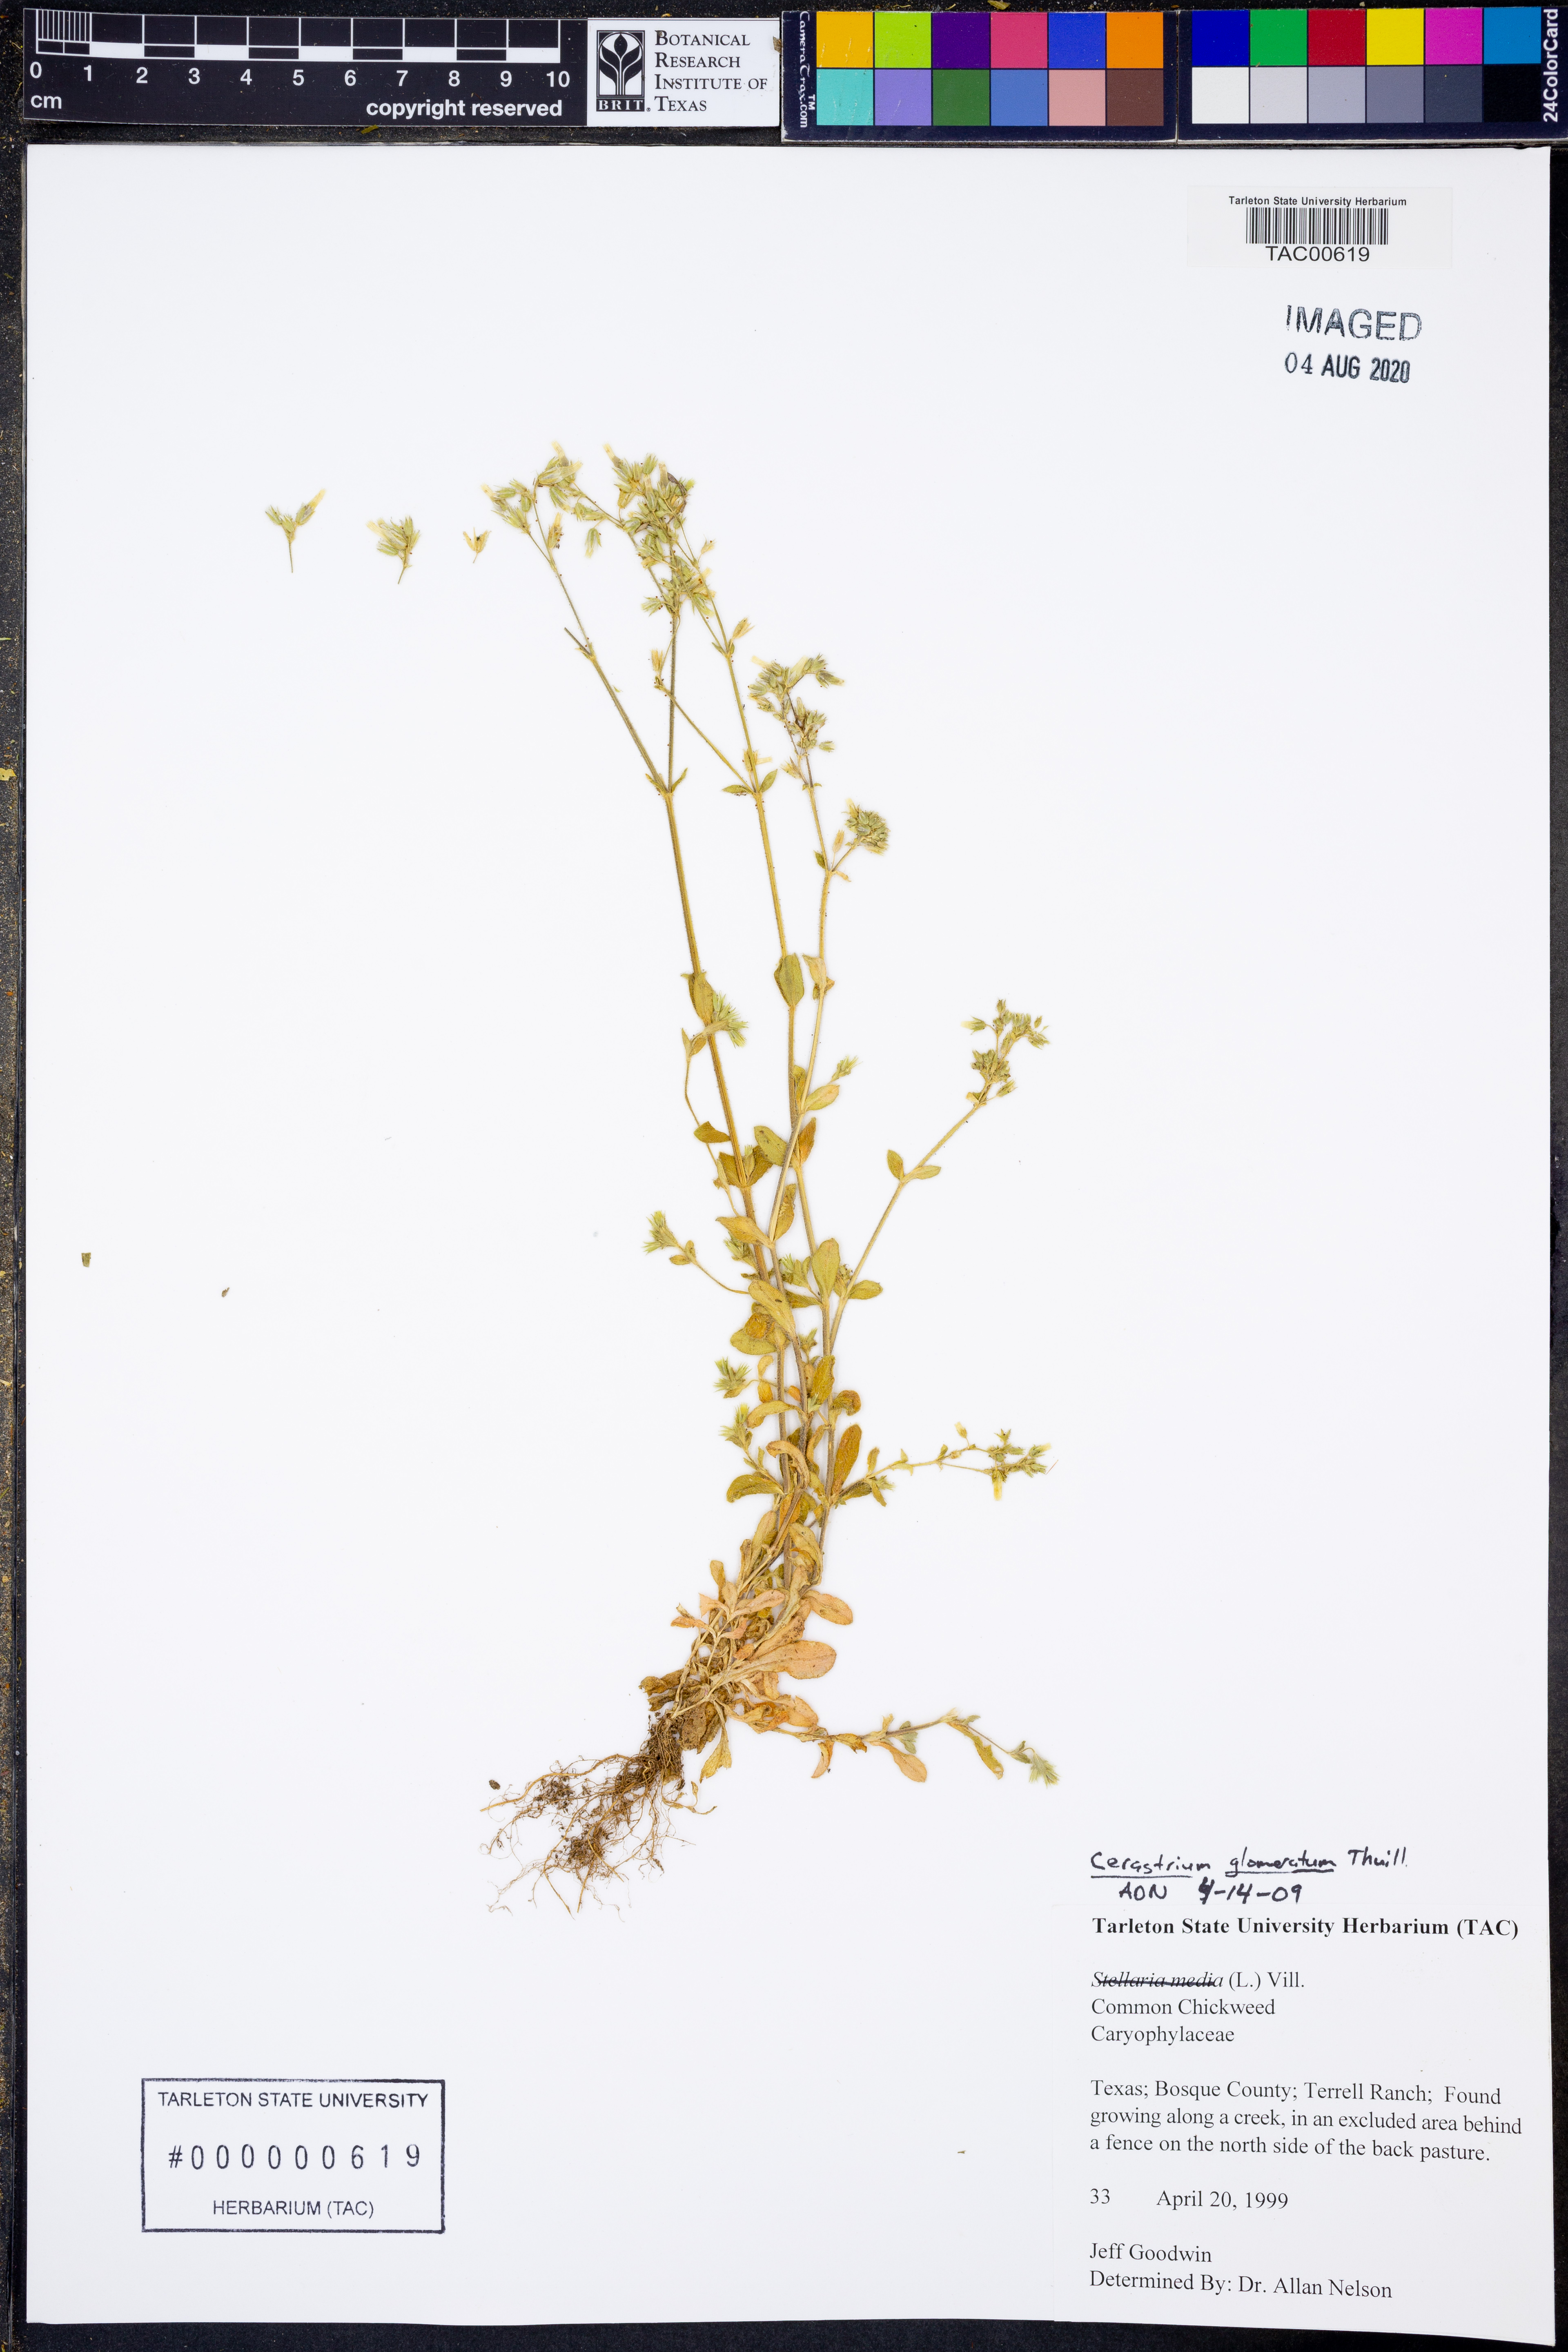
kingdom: Plantae
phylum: Tracheophyta
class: Magnoliopsida
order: Caryophyllales
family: Caryophyllaceae
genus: Cerastium
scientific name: Cerastium glomeratum
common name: Sticky chickweed
